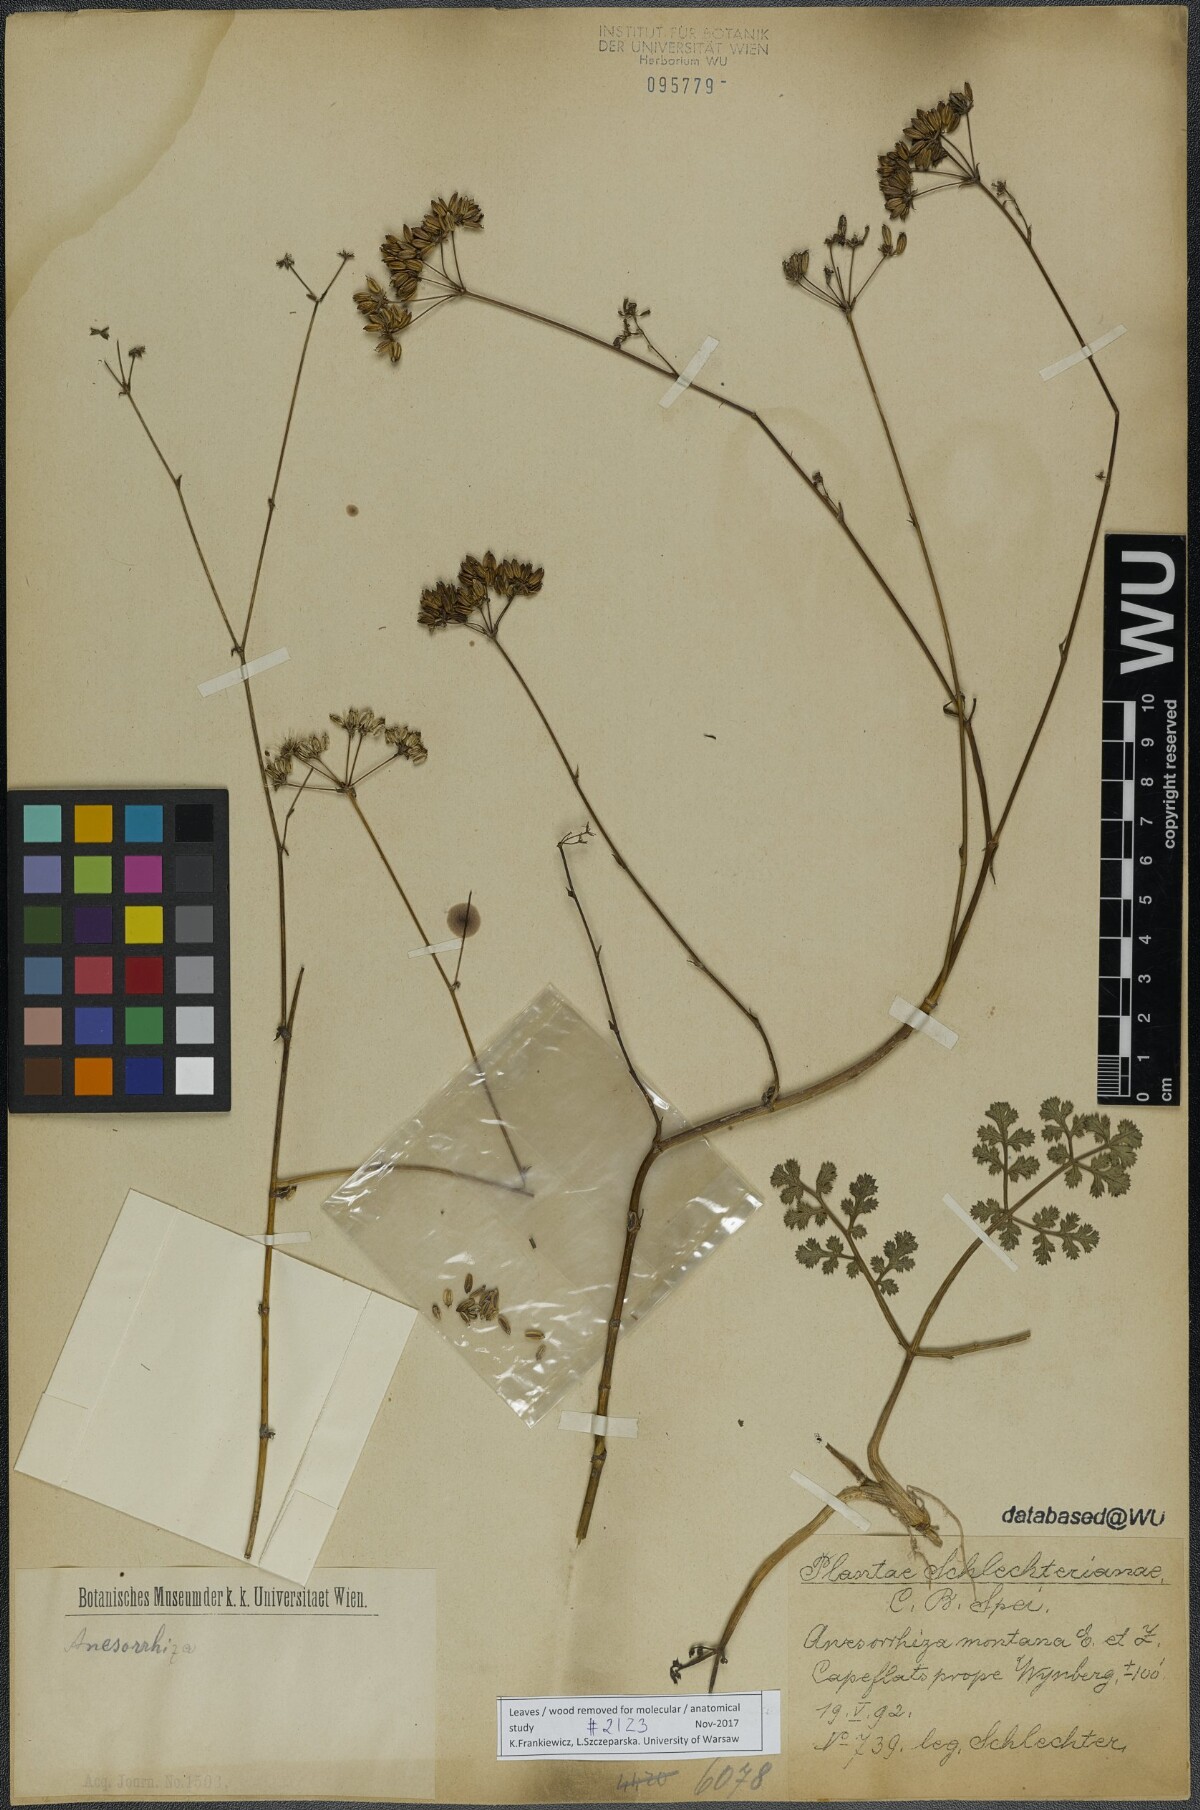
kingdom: Plantae
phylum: Tracheophyta
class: Magnoliopsida
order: Apiales
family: Apiaceae
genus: Annesorhiza
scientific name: Annesorhiza nuda
